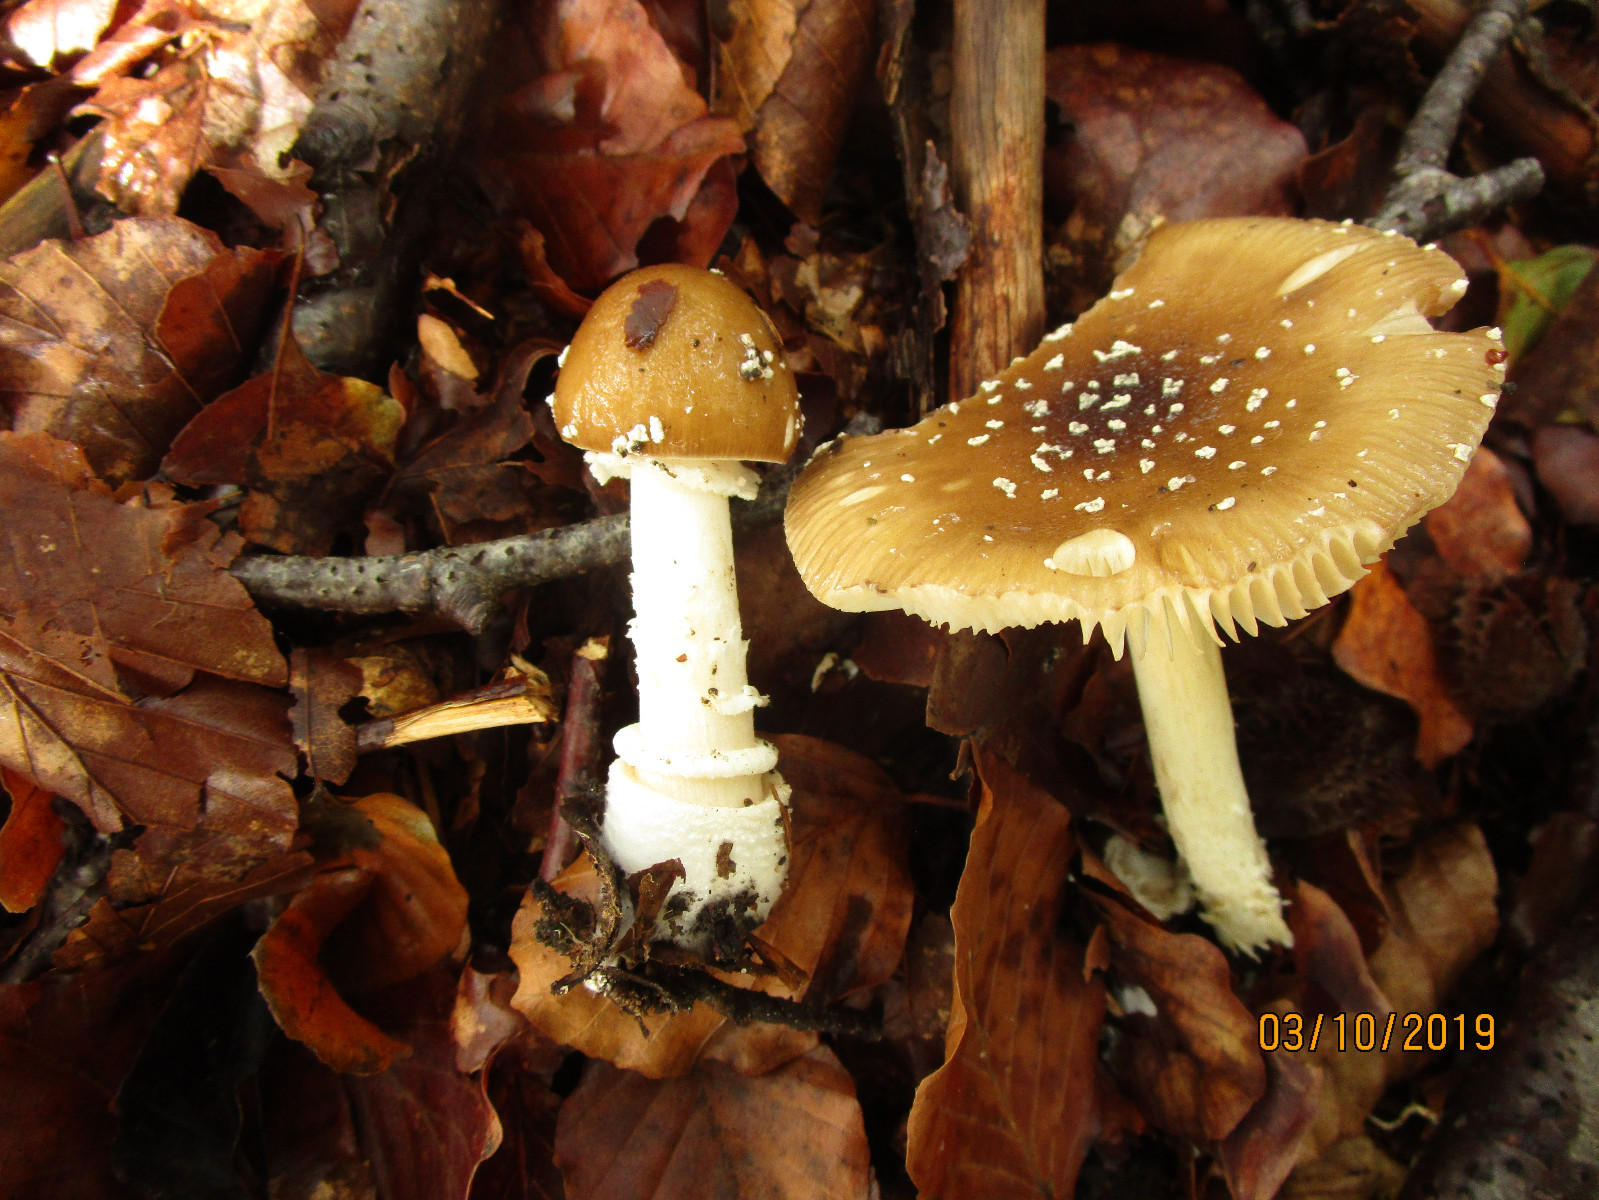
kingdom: Fungi
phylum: Basidiomycota
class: Agaricomycetes
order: Agaricales
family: Amanitaceae
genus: Amanita
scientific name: Amanita pantherina
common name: panter-fluesvamp
